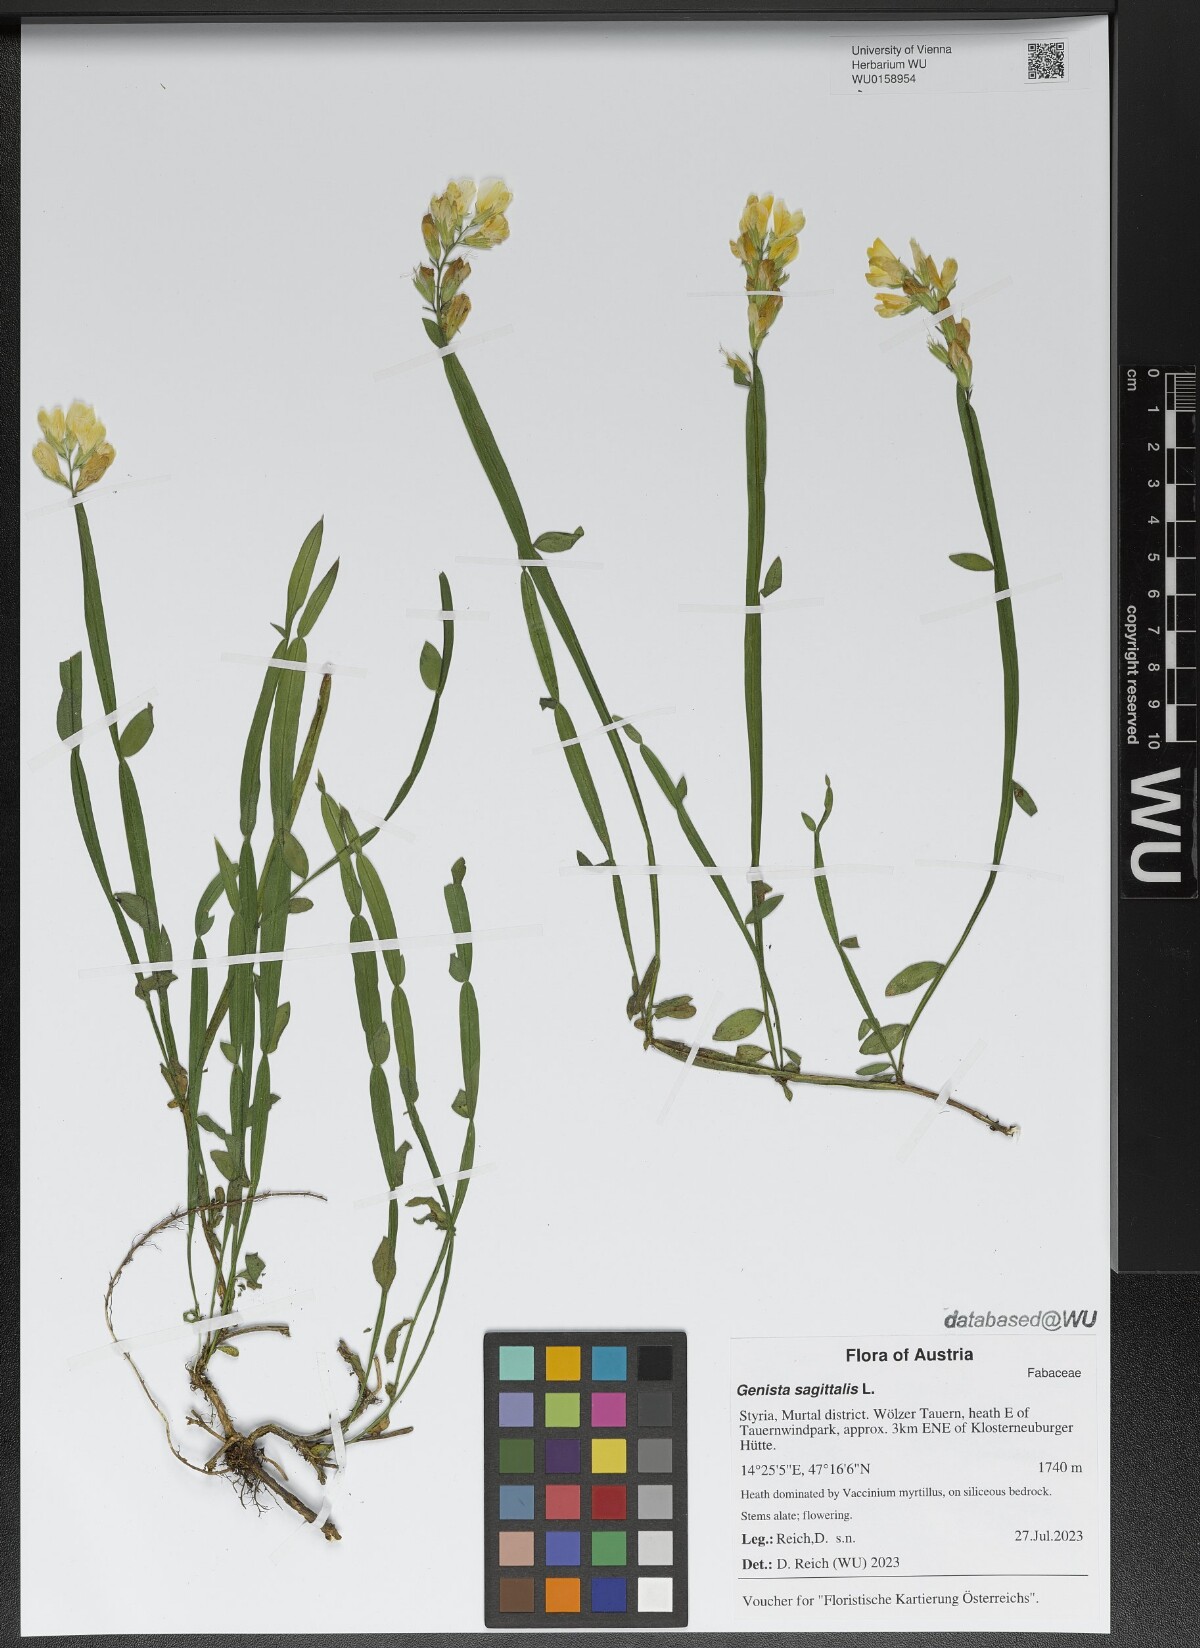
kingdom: Plantae
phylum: Tracheophyta
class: Magnoliopsida
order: Fabales
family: Fabaceae
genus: Genista
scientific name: Genista sagittalis
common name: Winged greenweed
